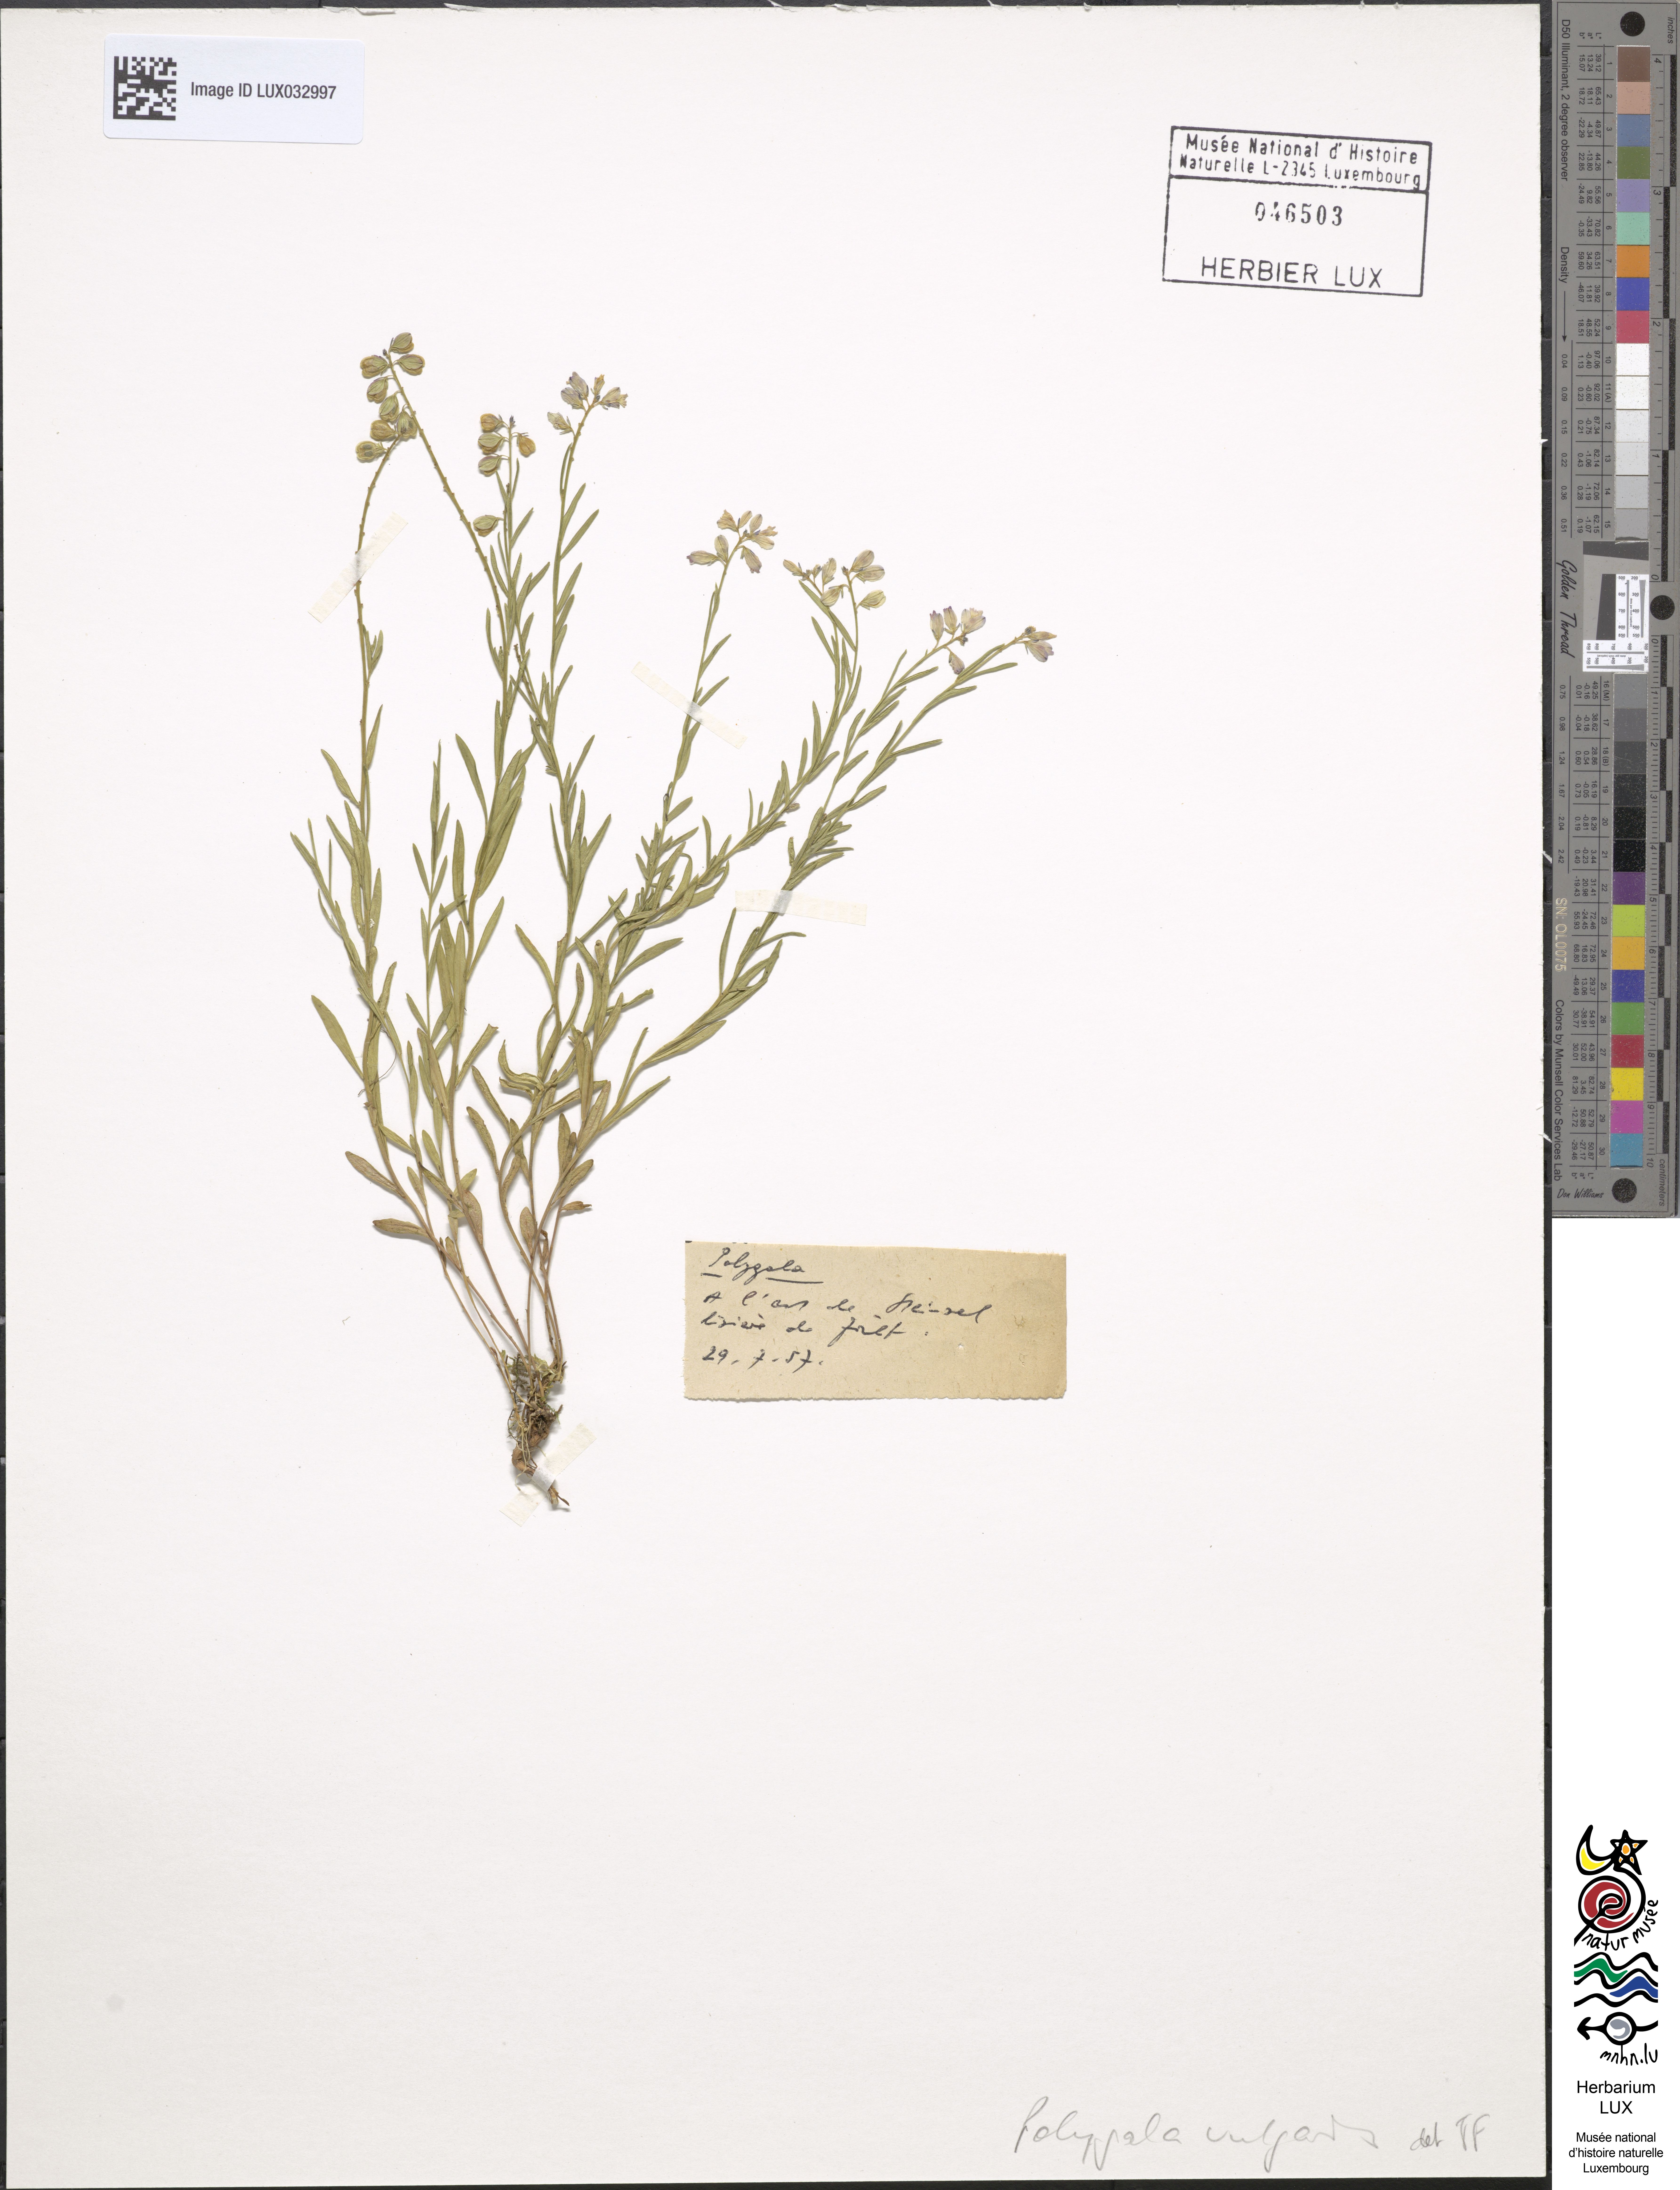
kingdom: Plantae
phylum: Tracheophyta
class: Magnoliopsida
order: Fabales
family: Polygalaceae
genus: Polygala
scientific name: Polygala vulgaris
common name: Common milkwort
